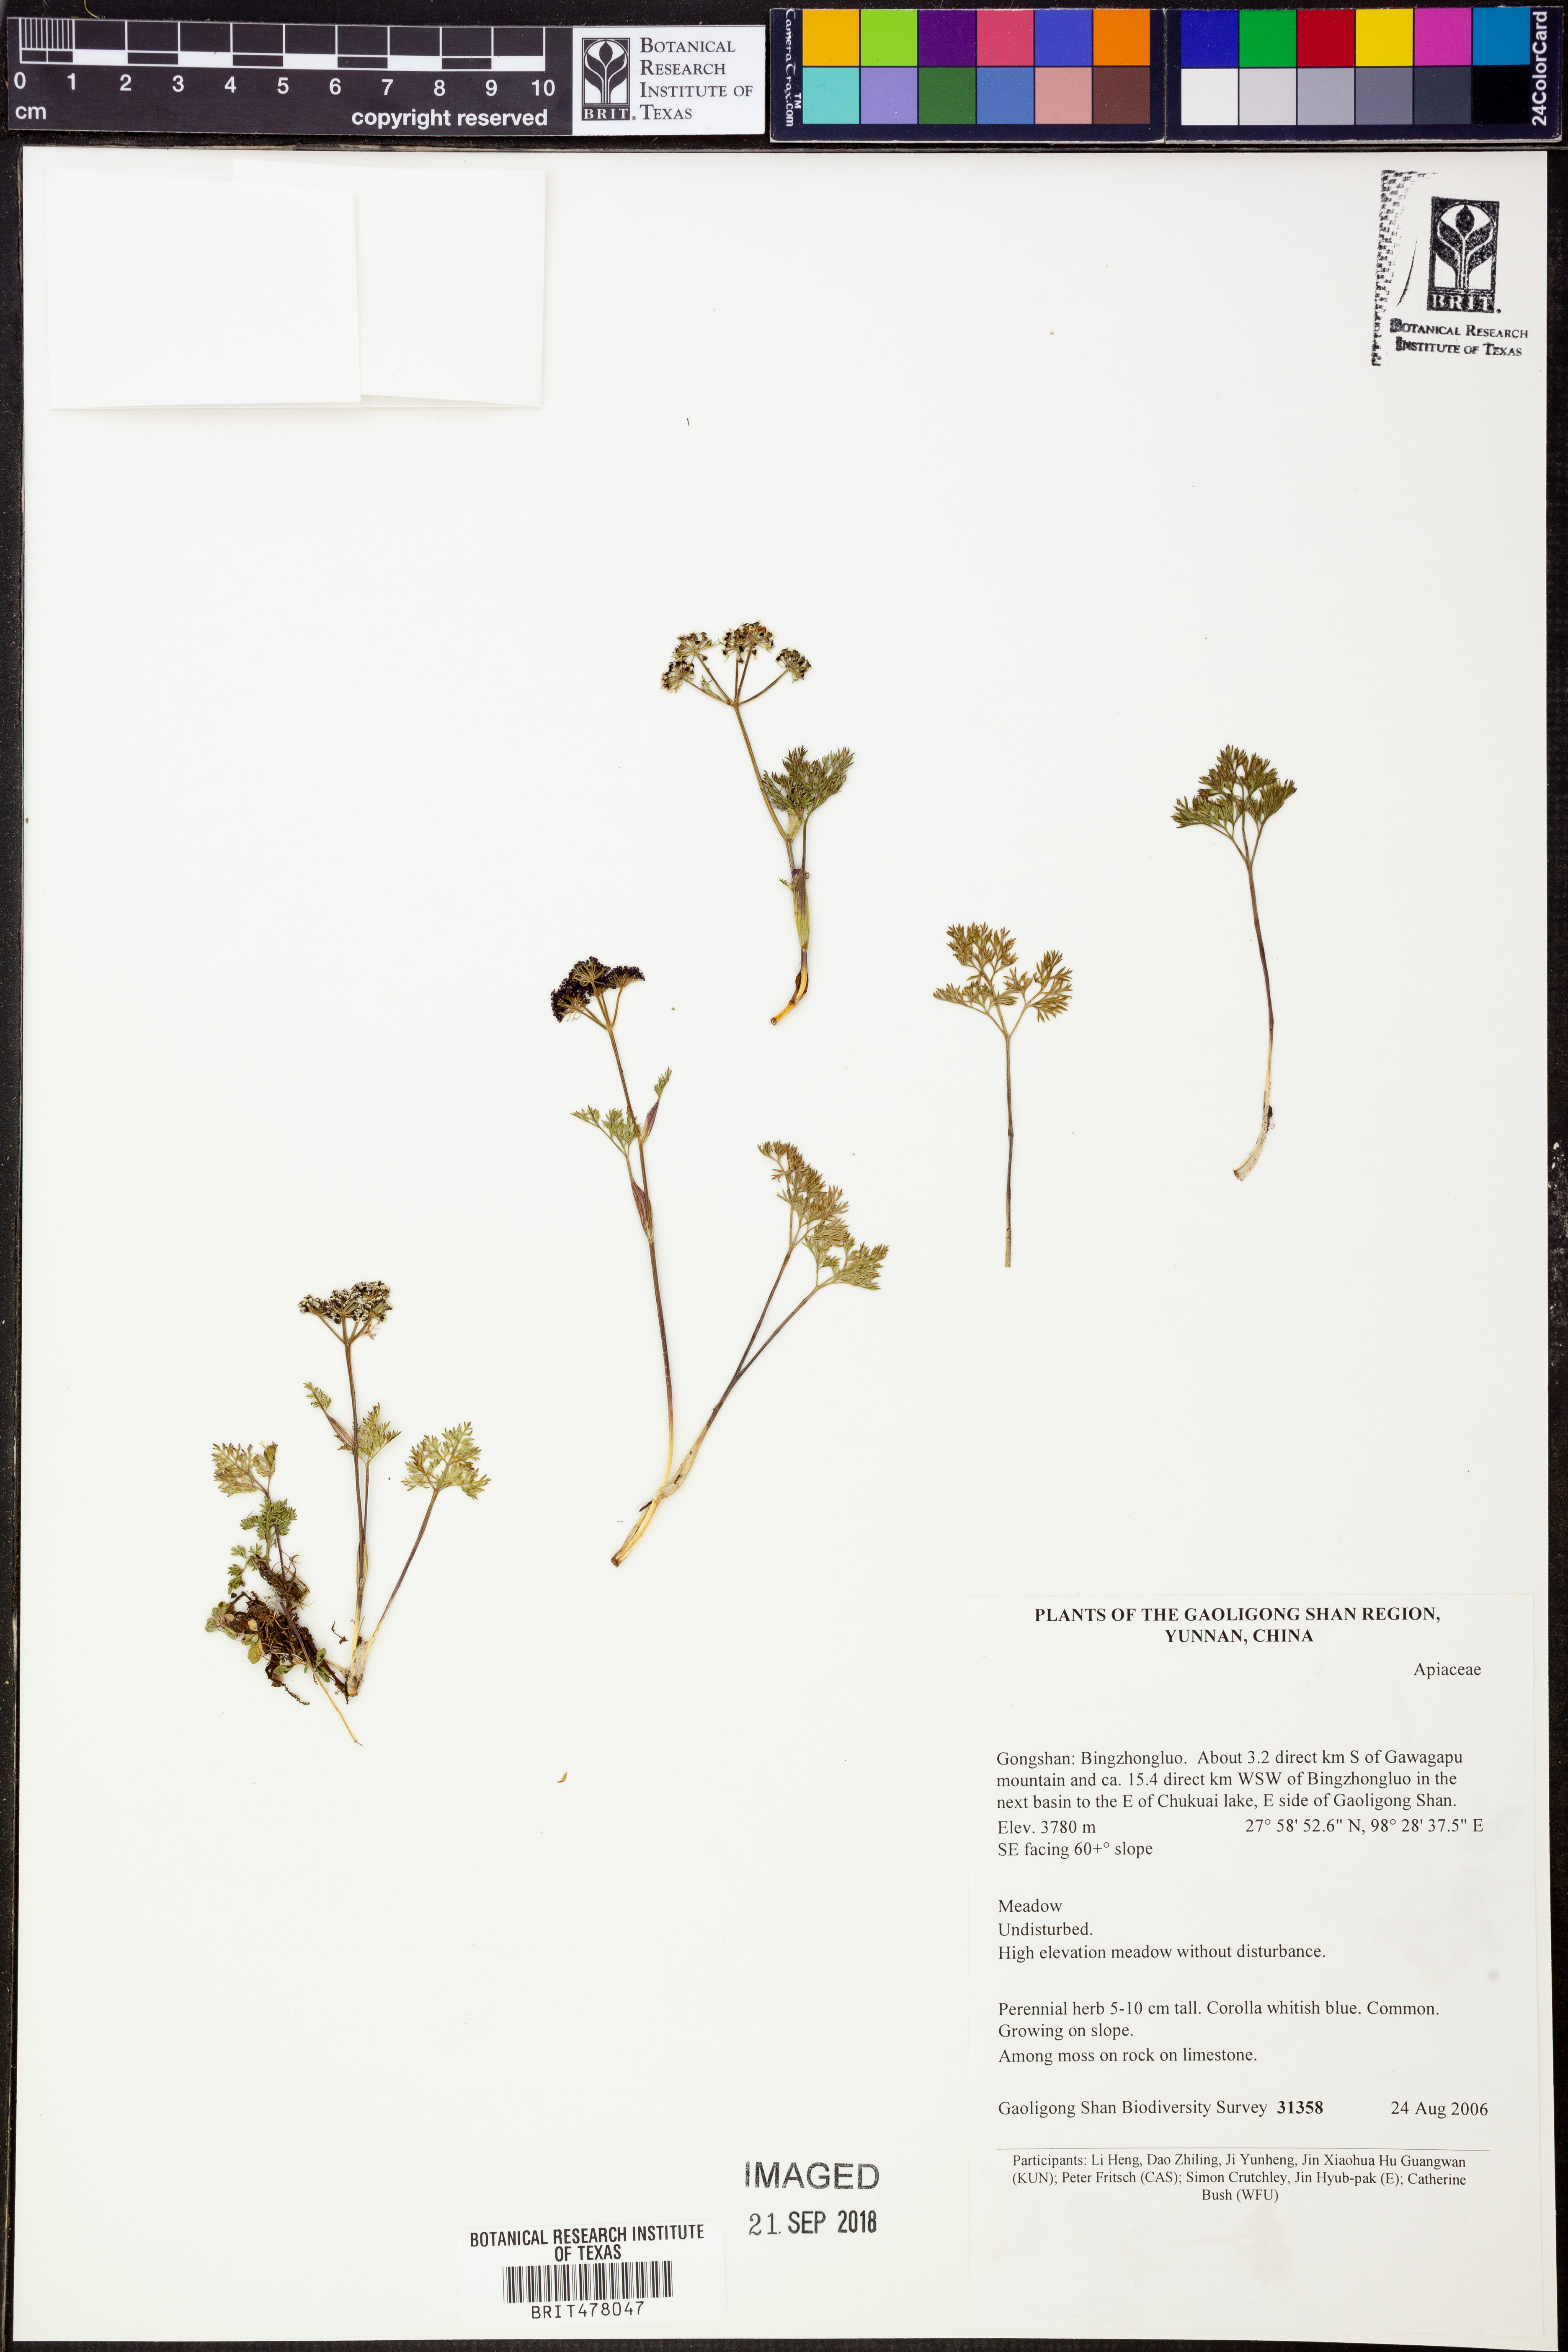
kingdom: Plantae
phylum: Tracheophyta
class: Magnoliopsida
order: Apiales
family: Apiaceae
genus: Trachydium
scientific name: Trachydium
